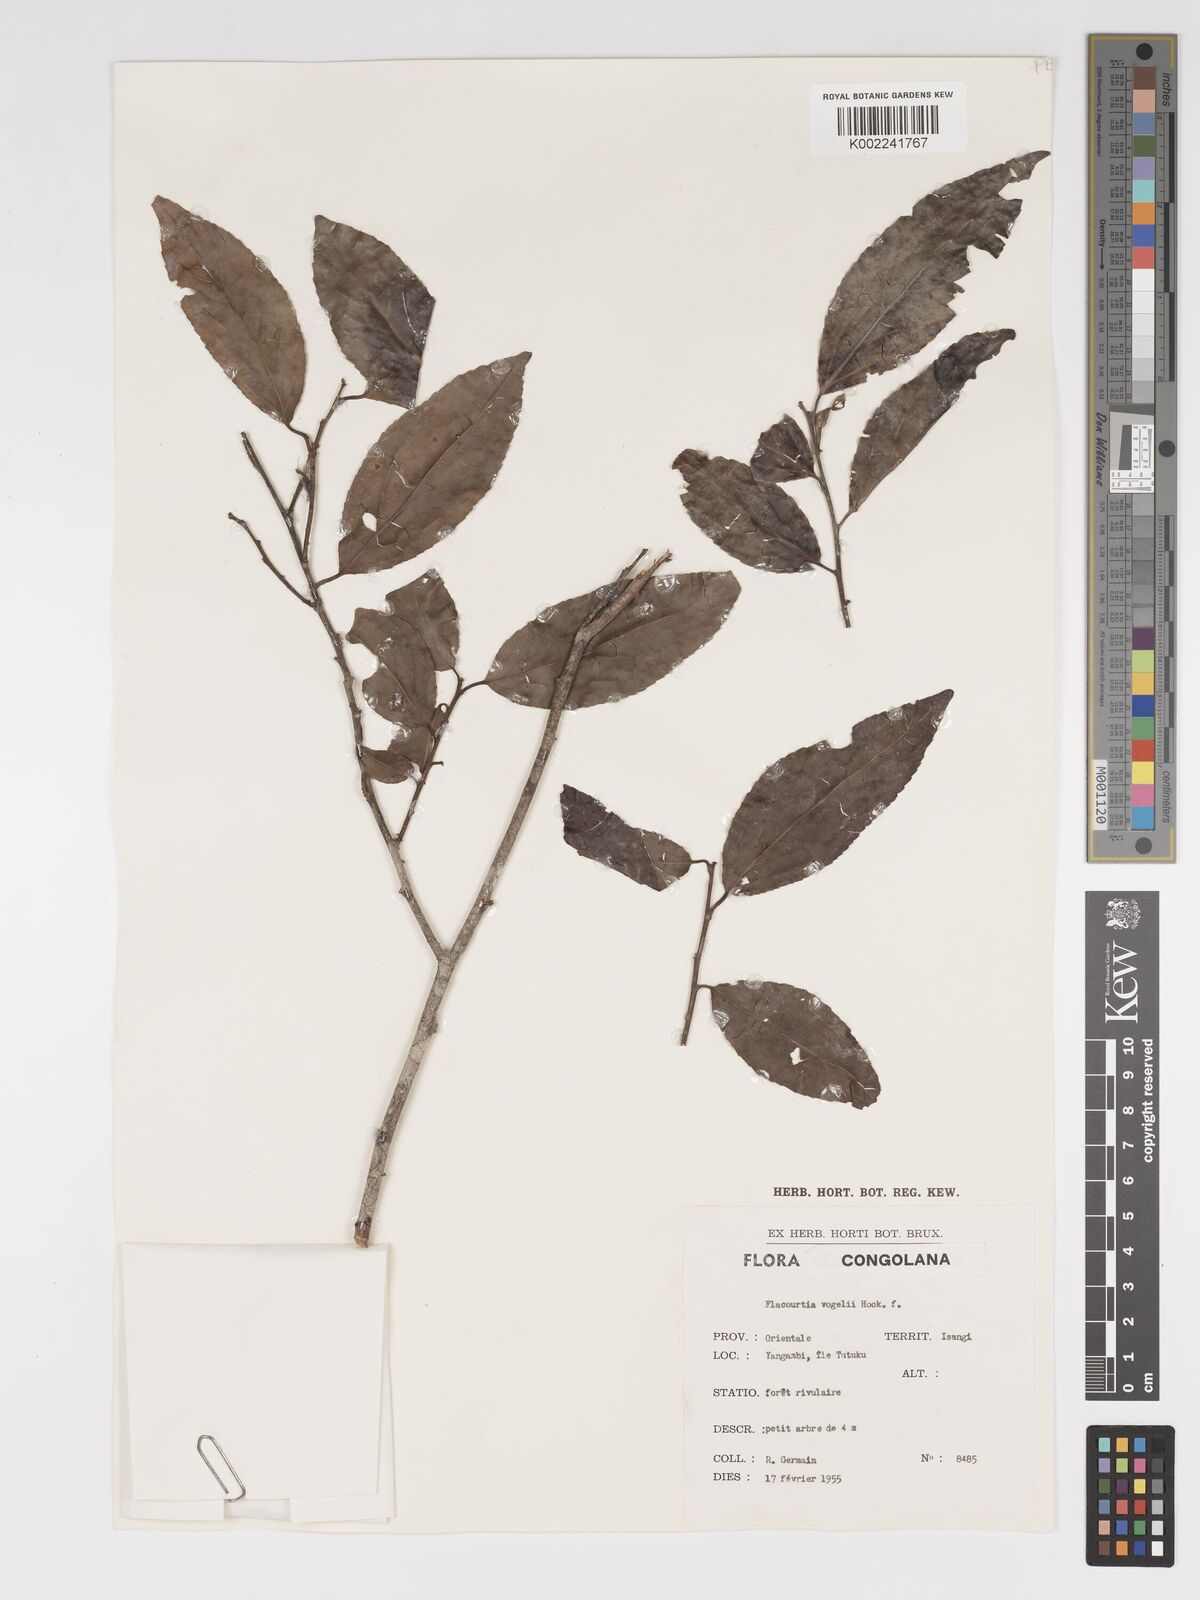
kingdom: Plantae
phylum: Tracheophyta
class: Magnoliopsida
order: Malpighiales
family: Salicaceae
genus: Flacourtia
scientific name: Flacourtia vogelii
